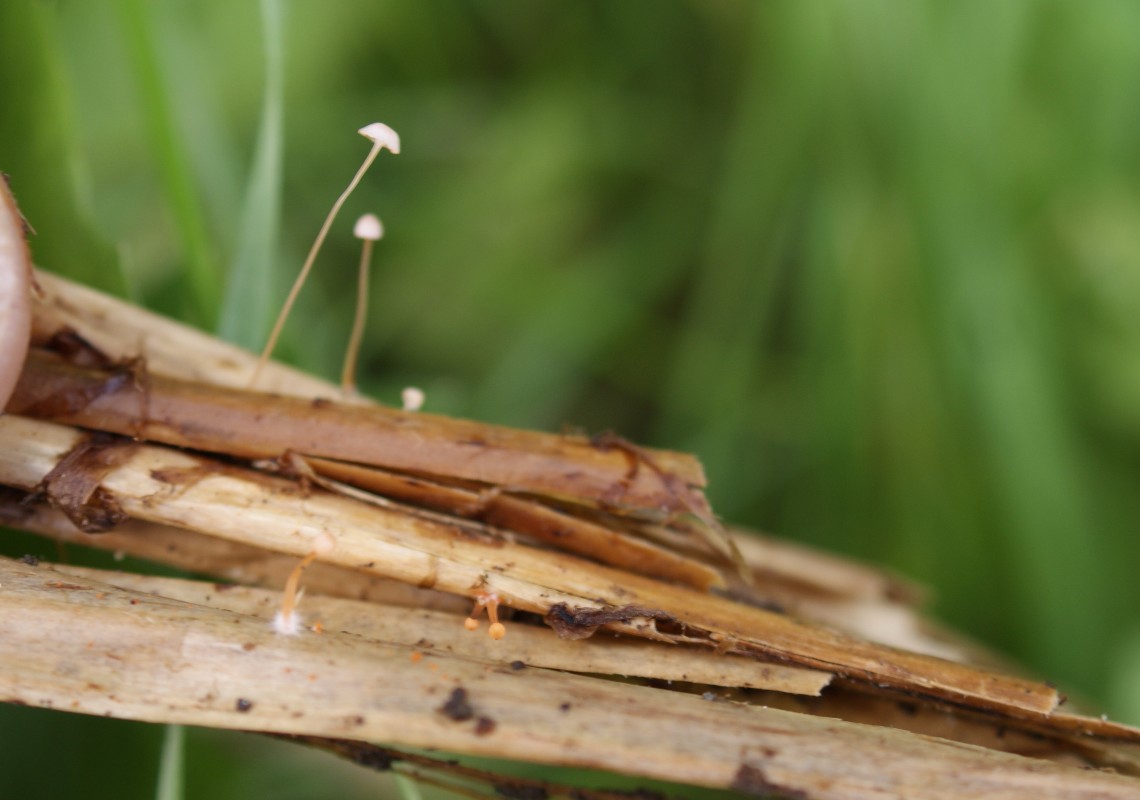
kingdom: Fungi
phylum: Basidiomycota
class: Agaricomycetes
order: Agaricales
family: Mycenaceae
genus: Mycena
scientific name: Mycena pterigena
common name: bregne-huesvamp
